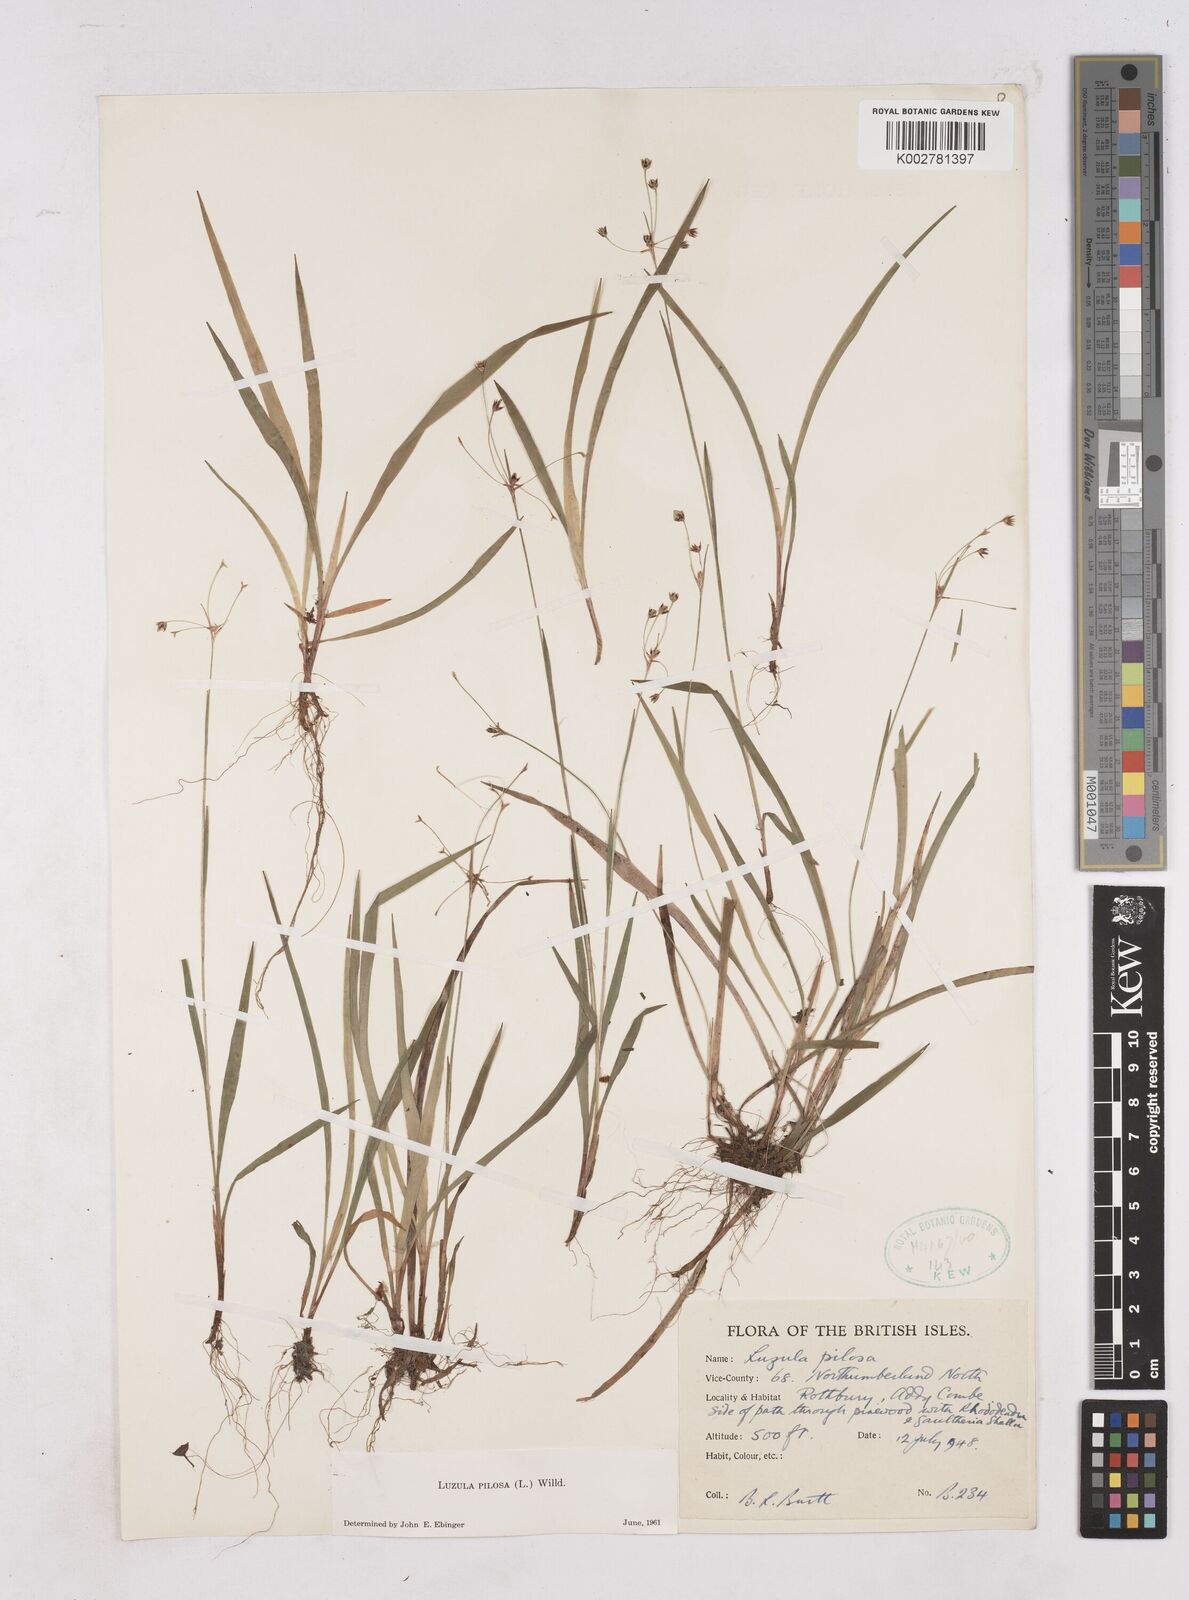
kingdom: Plantae
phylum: Tracheophyta
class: Liliopsida
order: Poales
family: Juncaceae
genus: Luzula
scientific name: Luzula pilosa
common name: Hairy wood-rush
